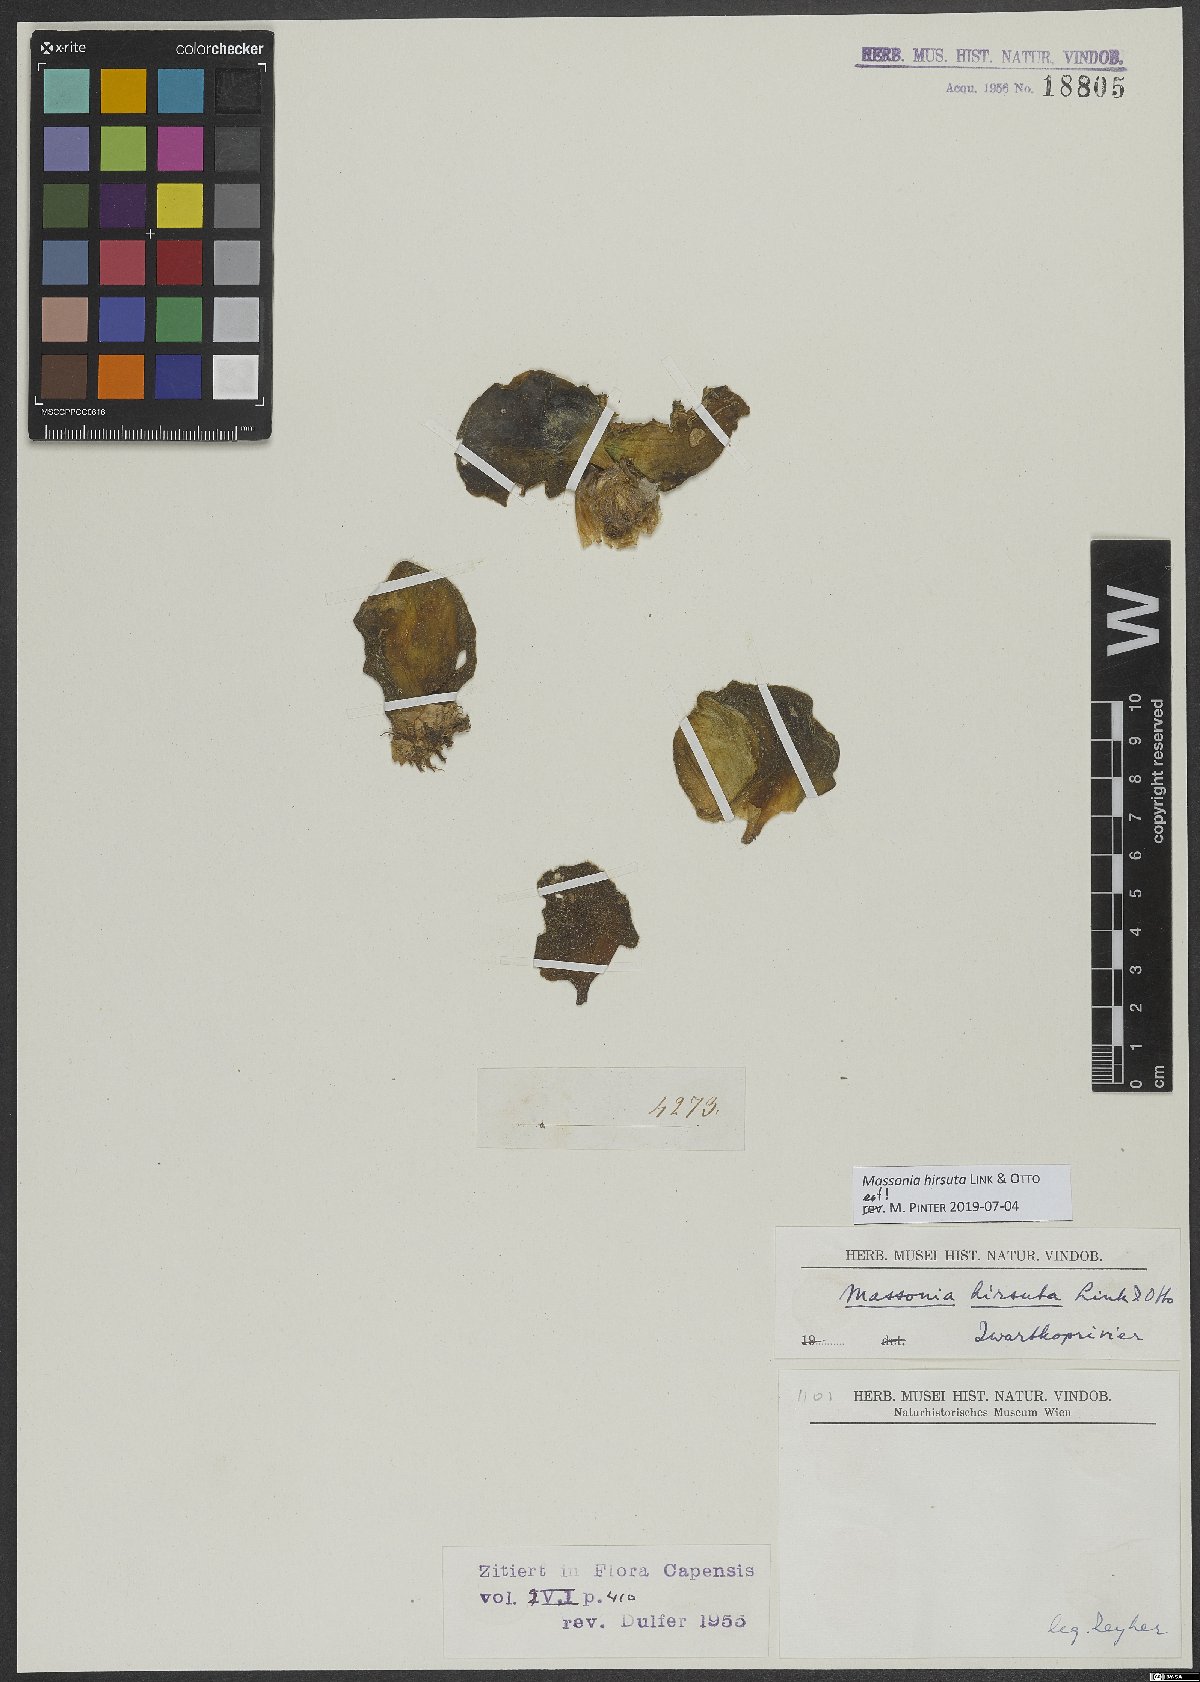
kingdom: Plantae
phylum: Tracheophyta
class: Liliopsida
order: Asparagales
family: Asparagaceae
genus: Massonia
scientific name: Massonia hirsuta
